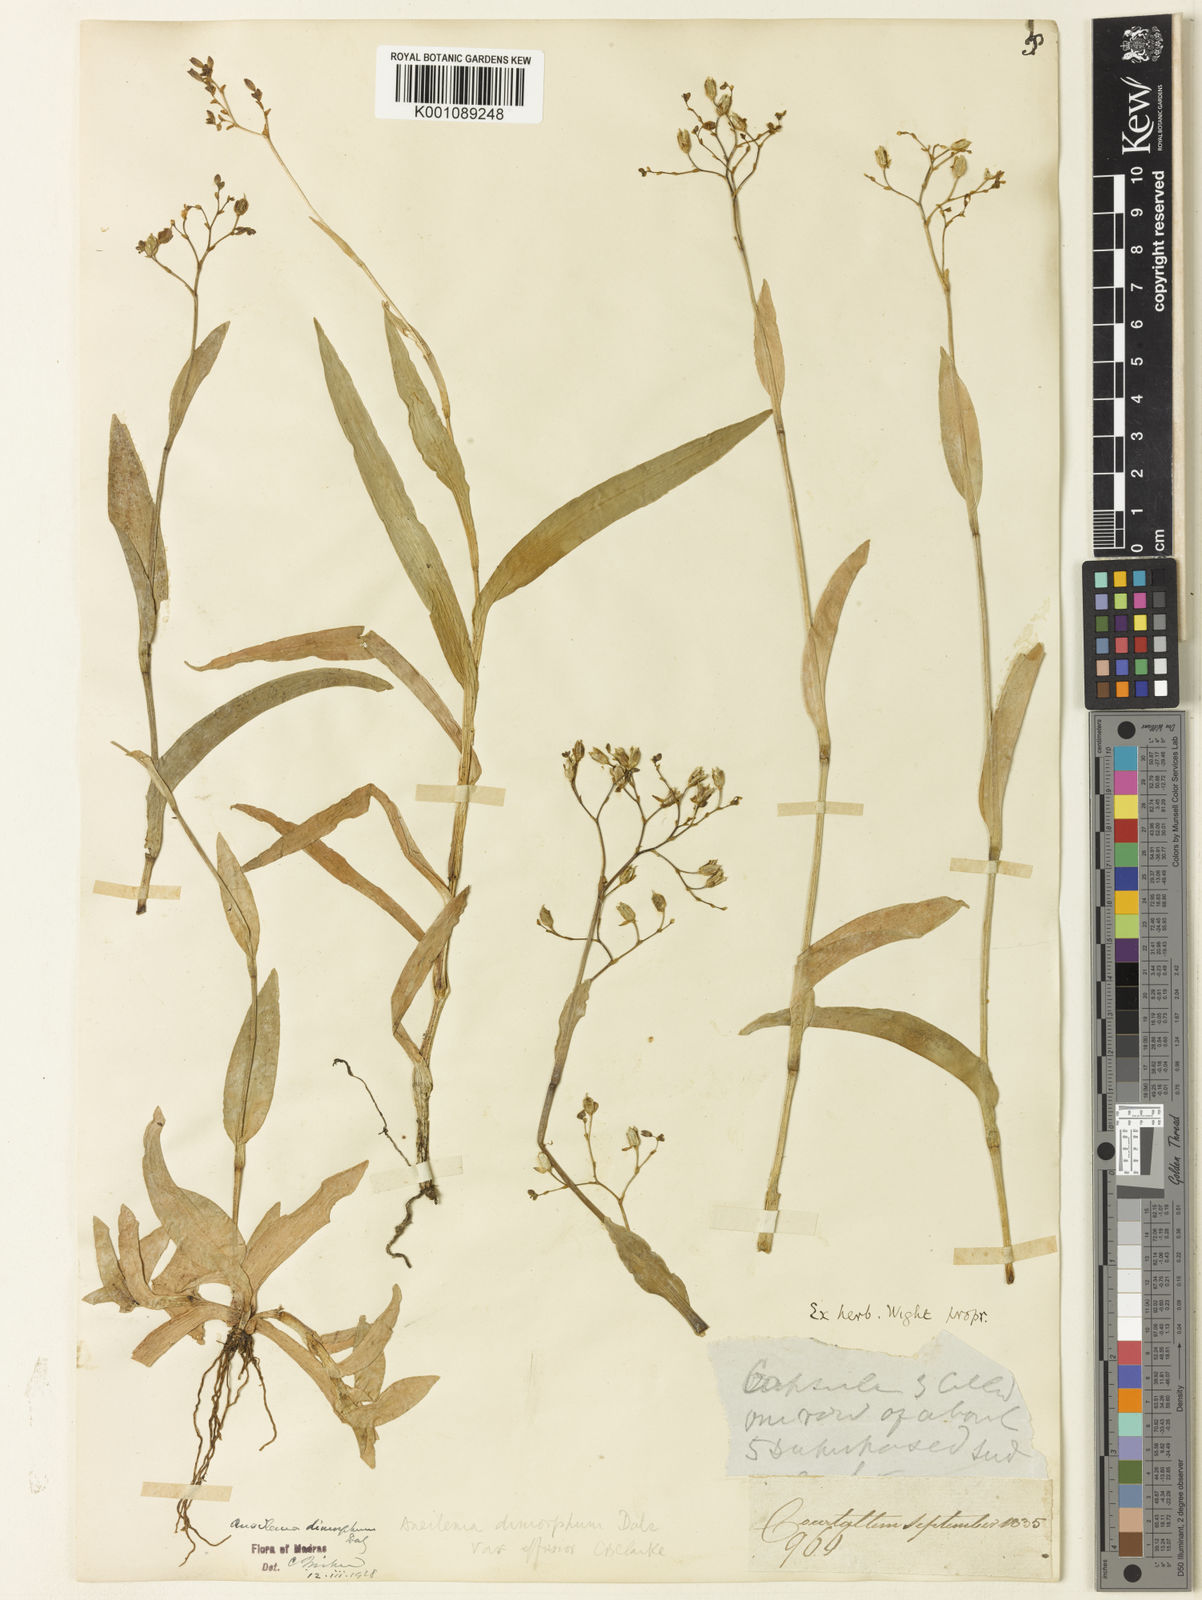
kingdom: Plantae
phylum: Tracheophyta
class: Liliopsida
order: Commelinales
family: Commelinaceae
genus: Murdannia
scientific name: Murdannia
